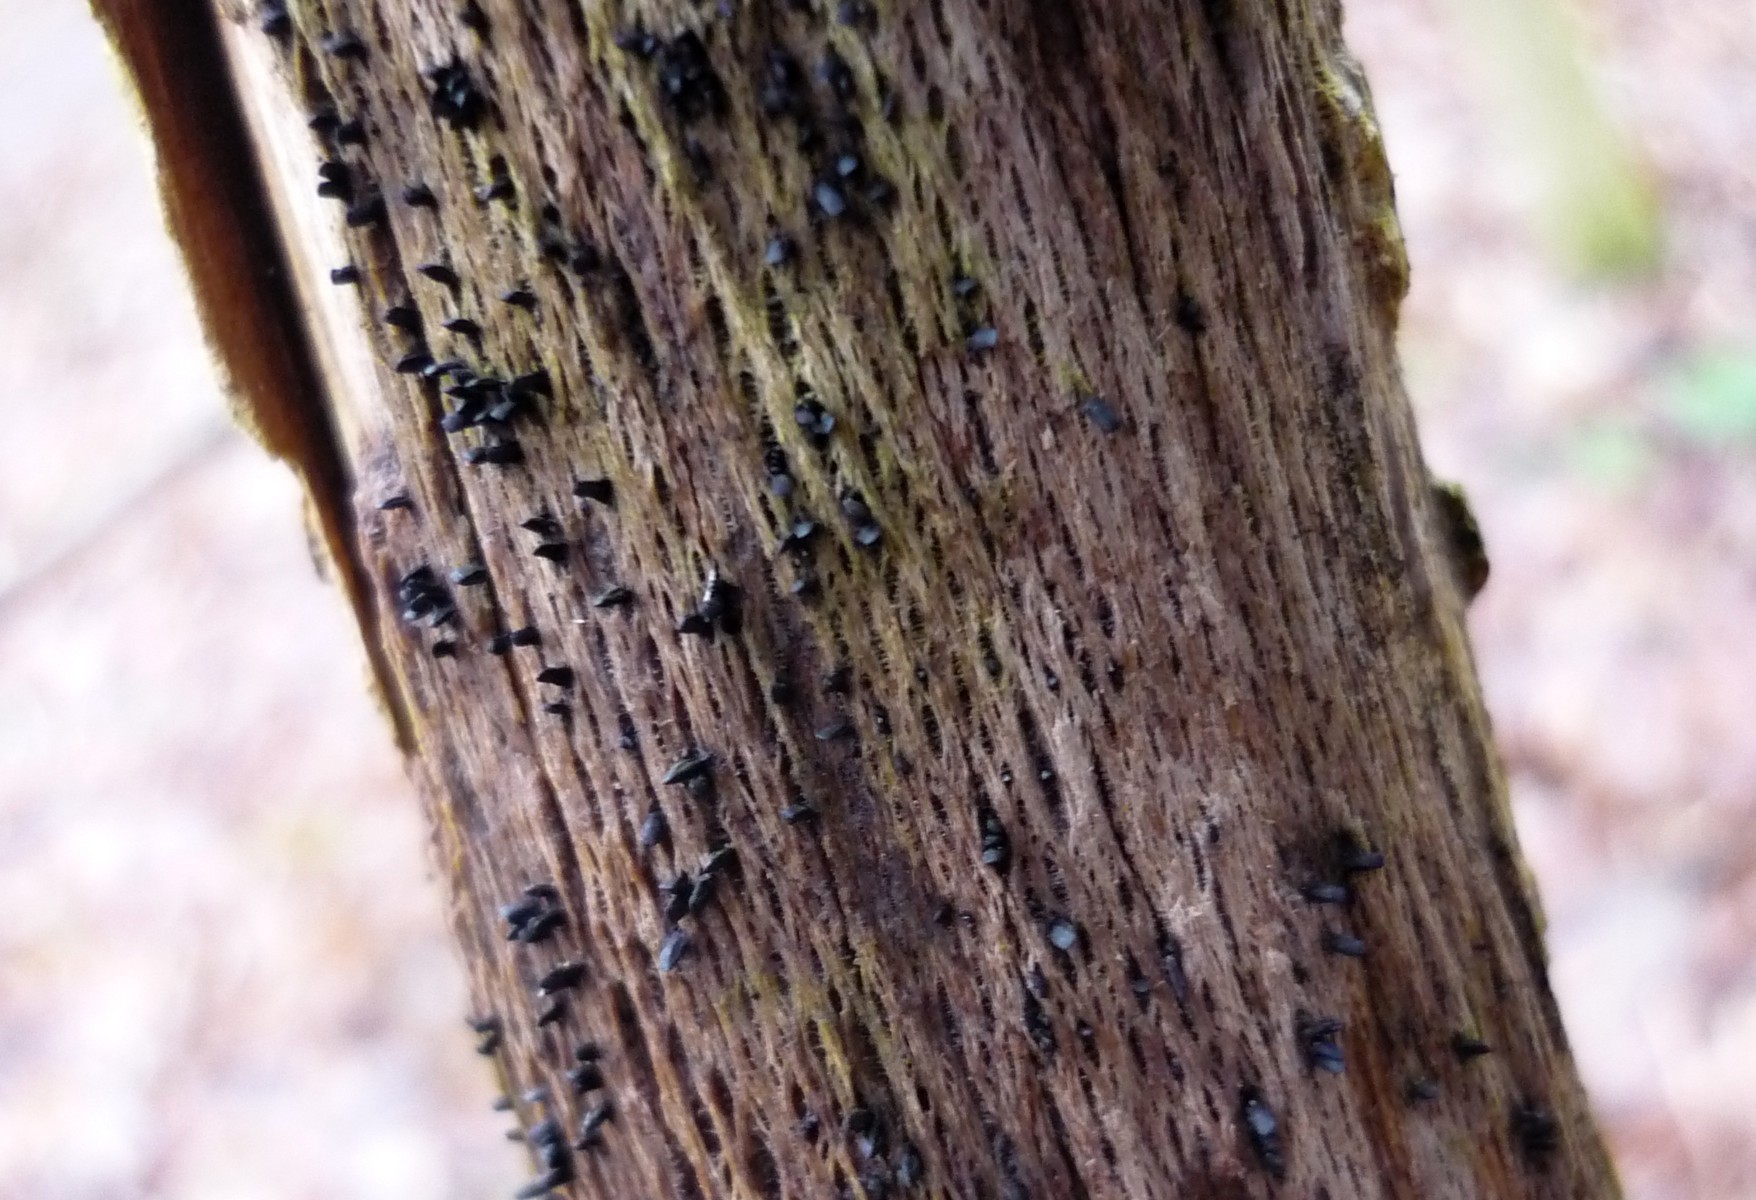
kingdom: Fungi
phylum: Ascomycota
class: Eurotiomycetes
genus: Glyphium
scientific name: Glyphium elatum
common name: kuløkse
